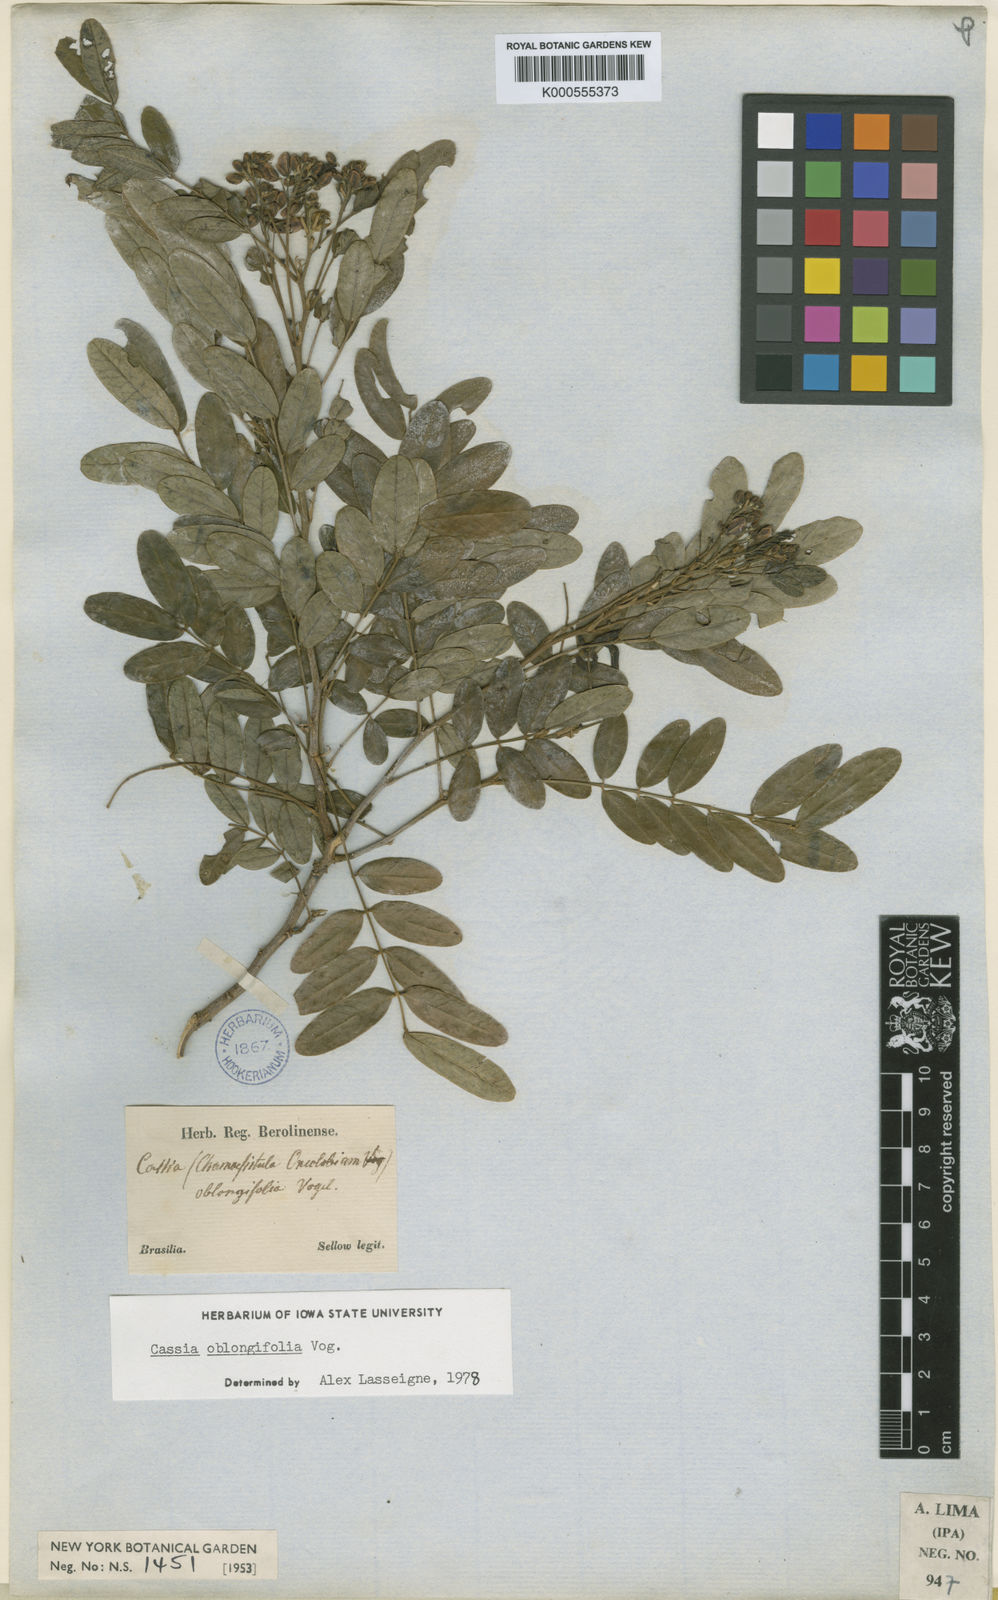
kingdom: Plantae
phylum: Tracheophyta
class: Magnoliopsida
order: Fabales
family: Fabaceae
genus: Senna
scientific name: Senna oblongifolia
